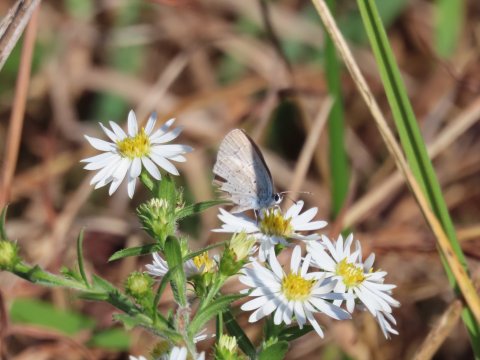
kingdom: Animalia
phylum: Arthropoda
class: Insecta
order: Lepidoptera
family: Lycaenidae
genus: Celastrina
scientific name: Celastrina
